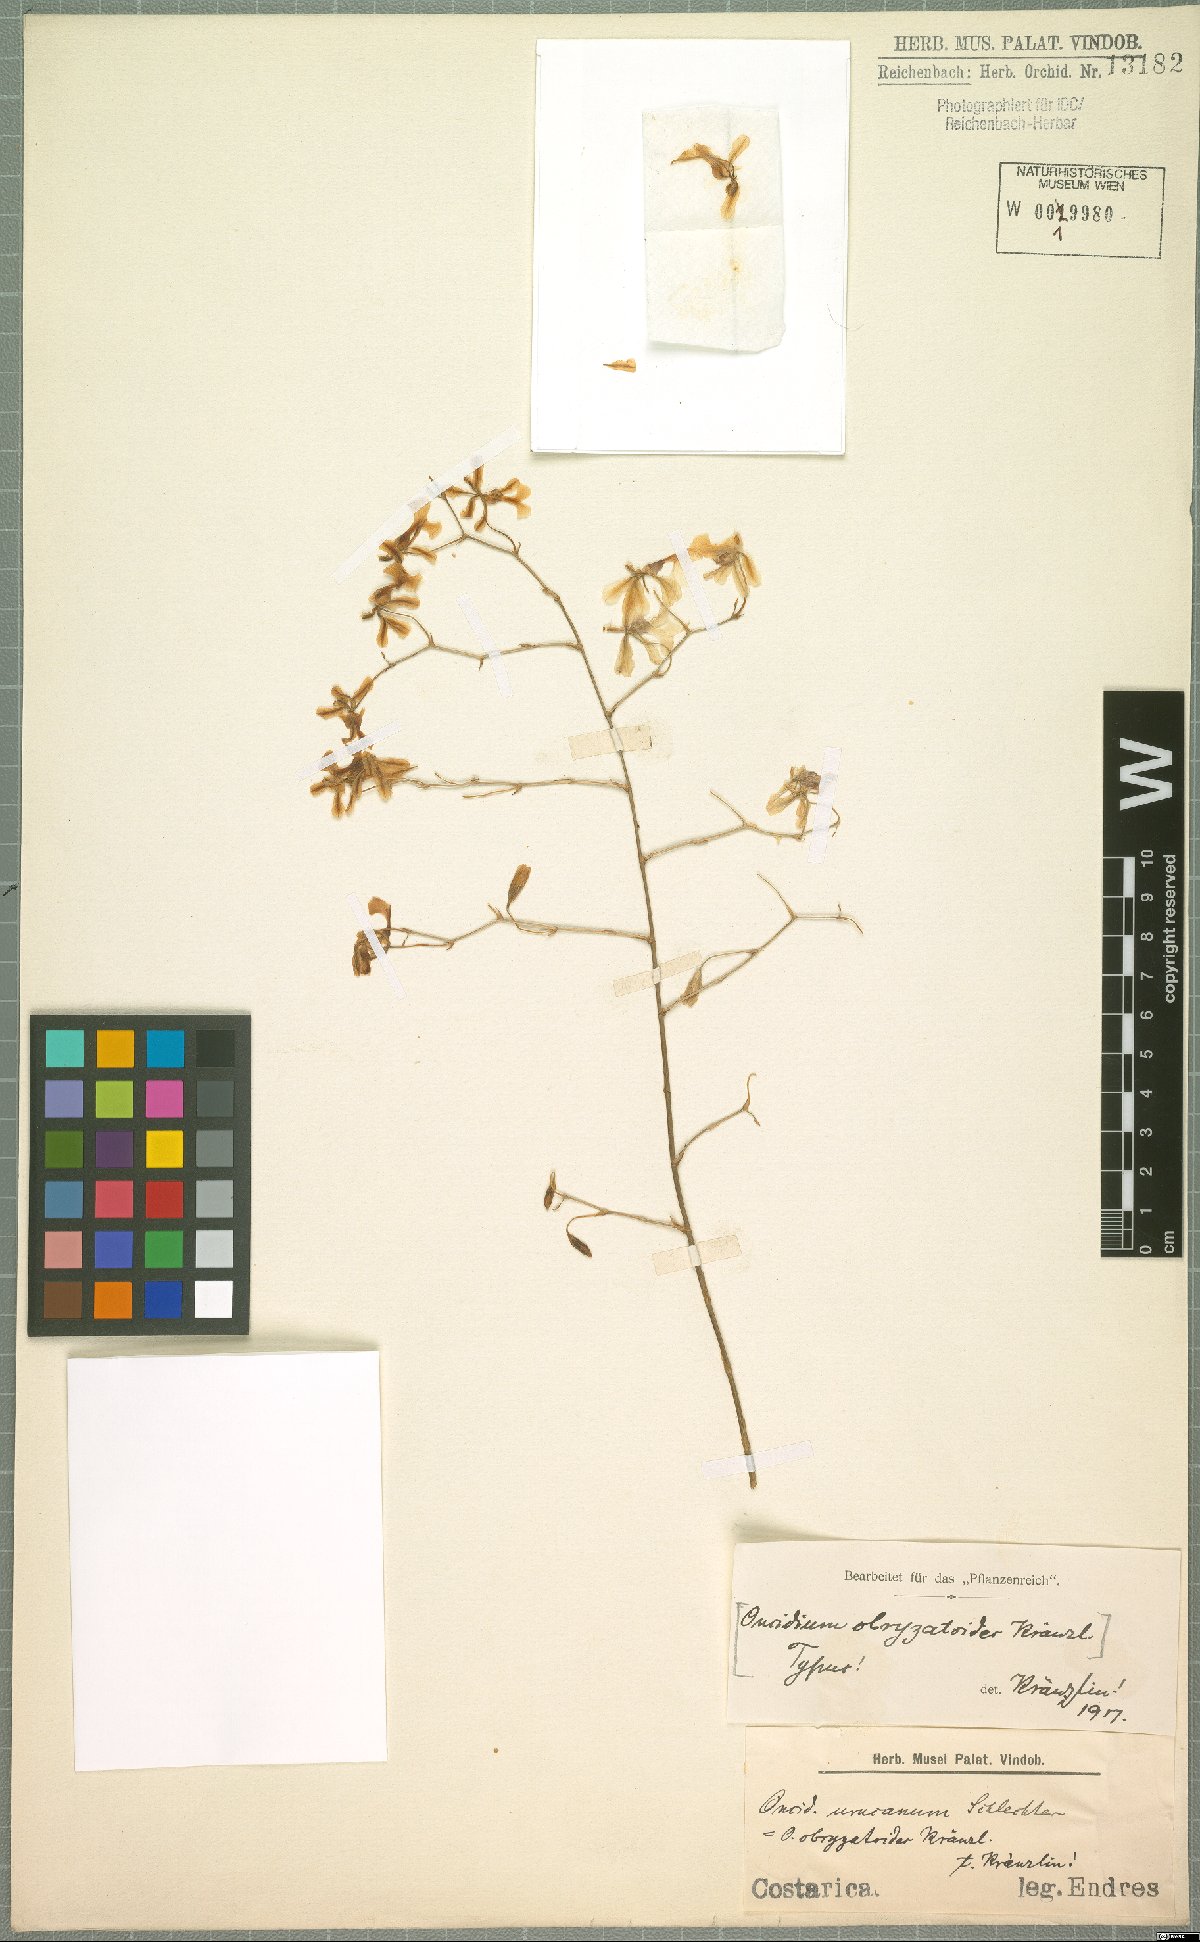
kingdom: Plantae
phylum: Tracheophyta
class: Liliopsida
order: Asparagales
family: Orchidaceae
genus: Oncidium
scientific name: Oncidium obryzatoides
